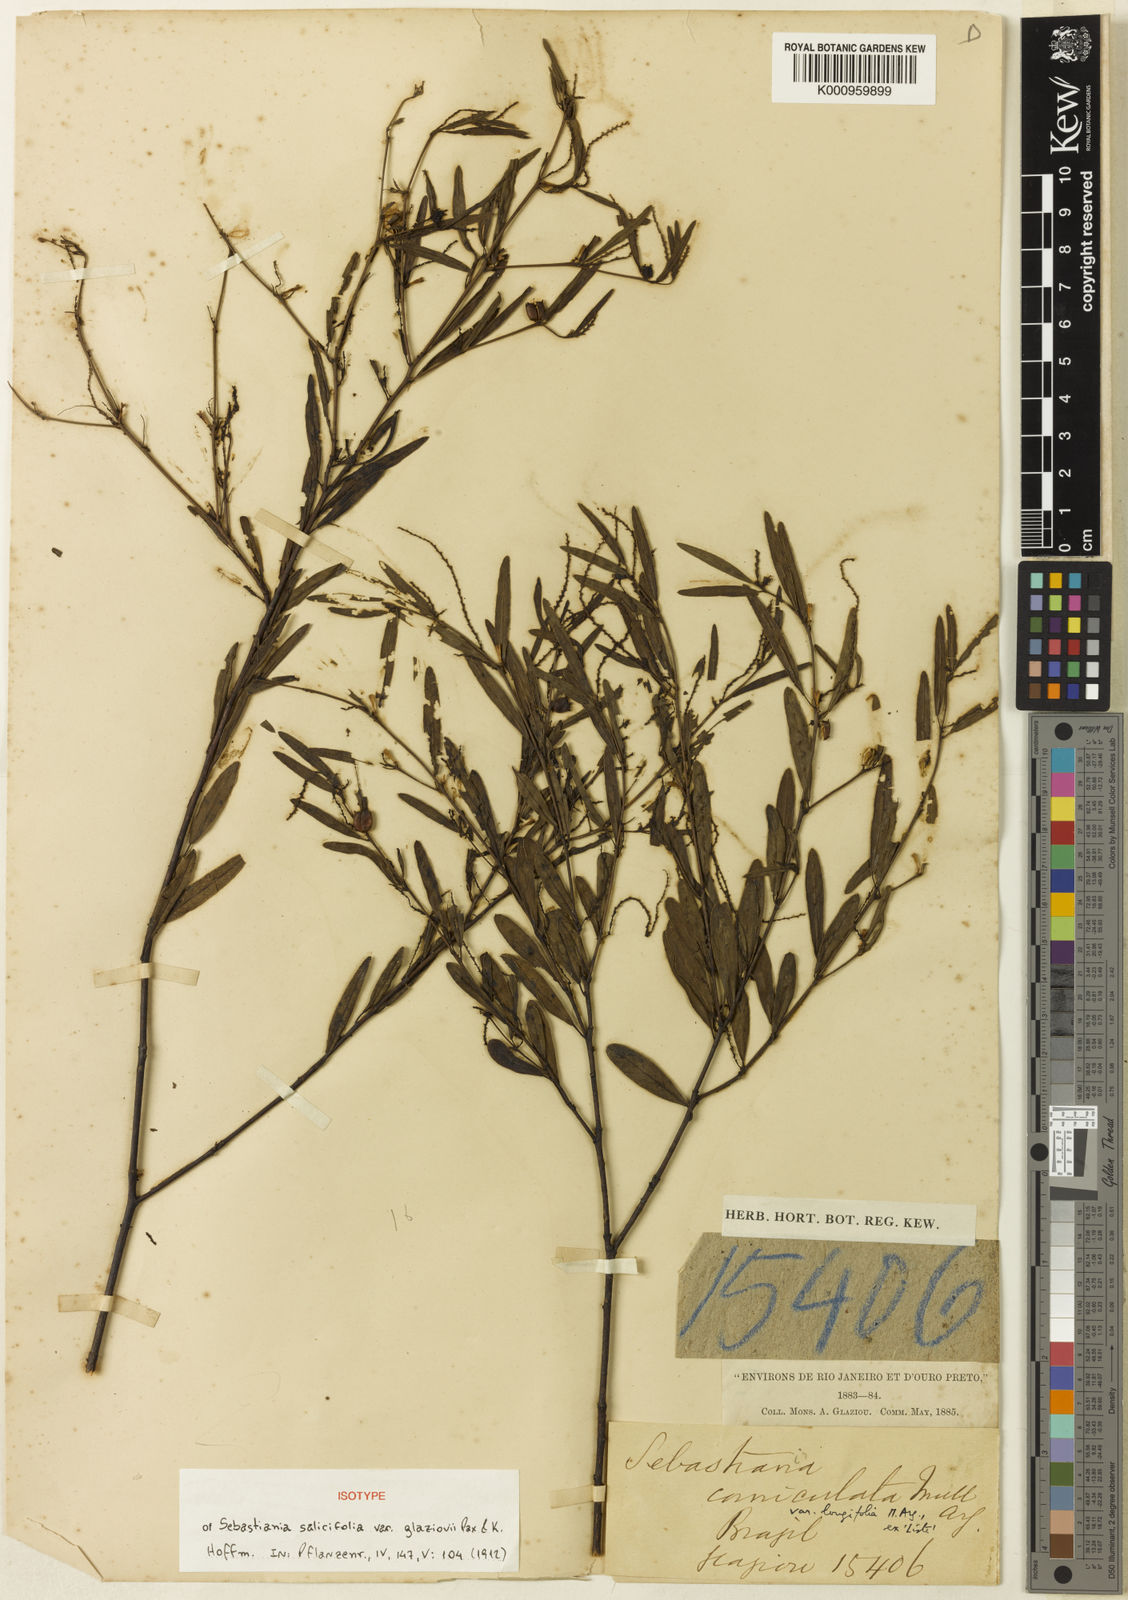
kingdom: Plantae
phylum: Tracheophyta
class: Magnoliopsida
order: Malpighiales
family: Euphorbiaceae
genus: Microstachys
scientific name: Microstachys corniculata
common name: Hato tejas
